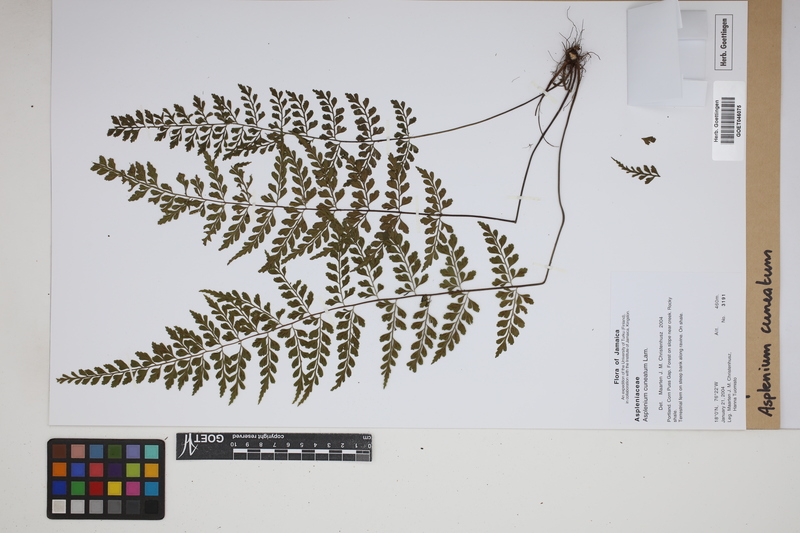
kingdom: Plantae
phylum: Tracheophyta
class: Polypodiopsida
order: Polypodiales
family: Aspleniaceae
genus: Asplenium
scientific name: Asplenium cuneatum
